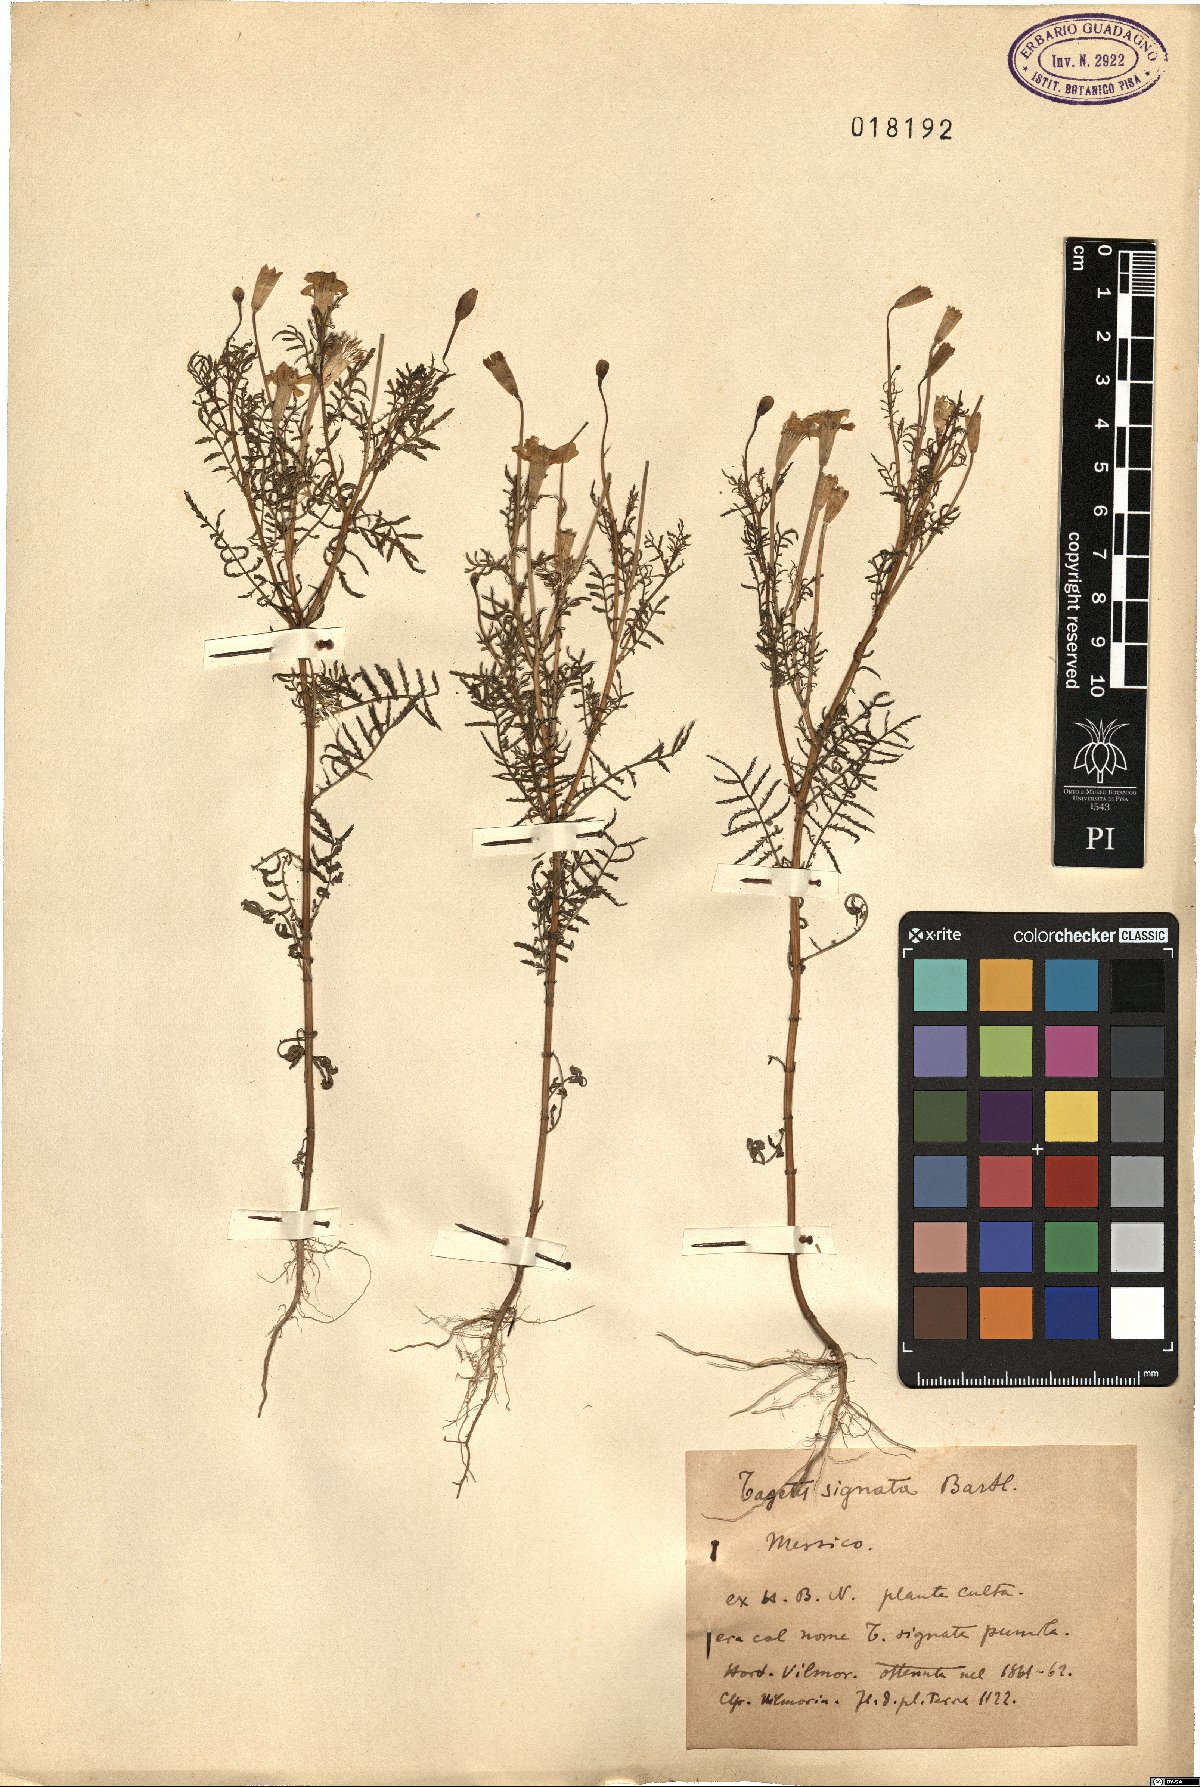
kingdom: Plantae
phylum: Tracheophyta
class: Magnoliopsida
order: Asterales
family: Asteraceae
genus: Tagetes
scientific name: Tagetes tenuifolia
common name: Signet marigold
